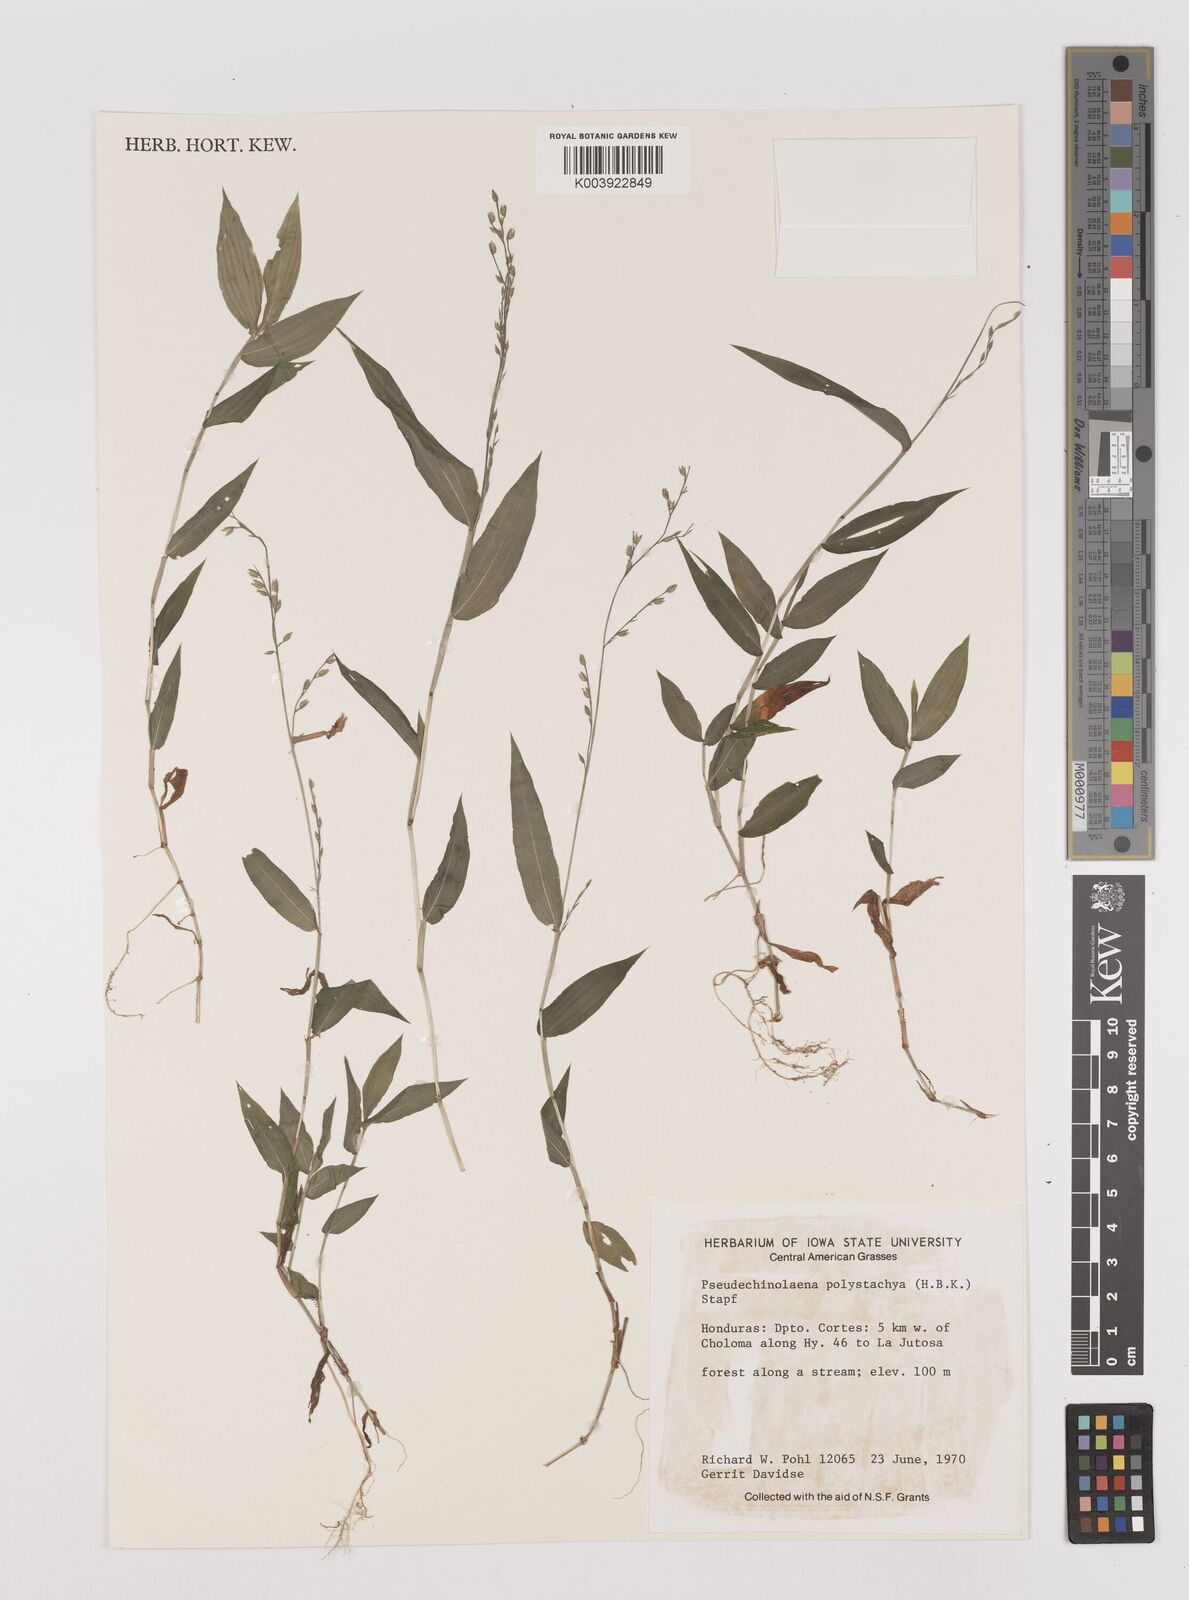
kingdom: Plantae
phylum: Tracheophyta
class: Liliopsida
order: Poales
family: Poaceae
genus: Pseudechinolaena
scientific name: Pseudechinolaena polystachya
